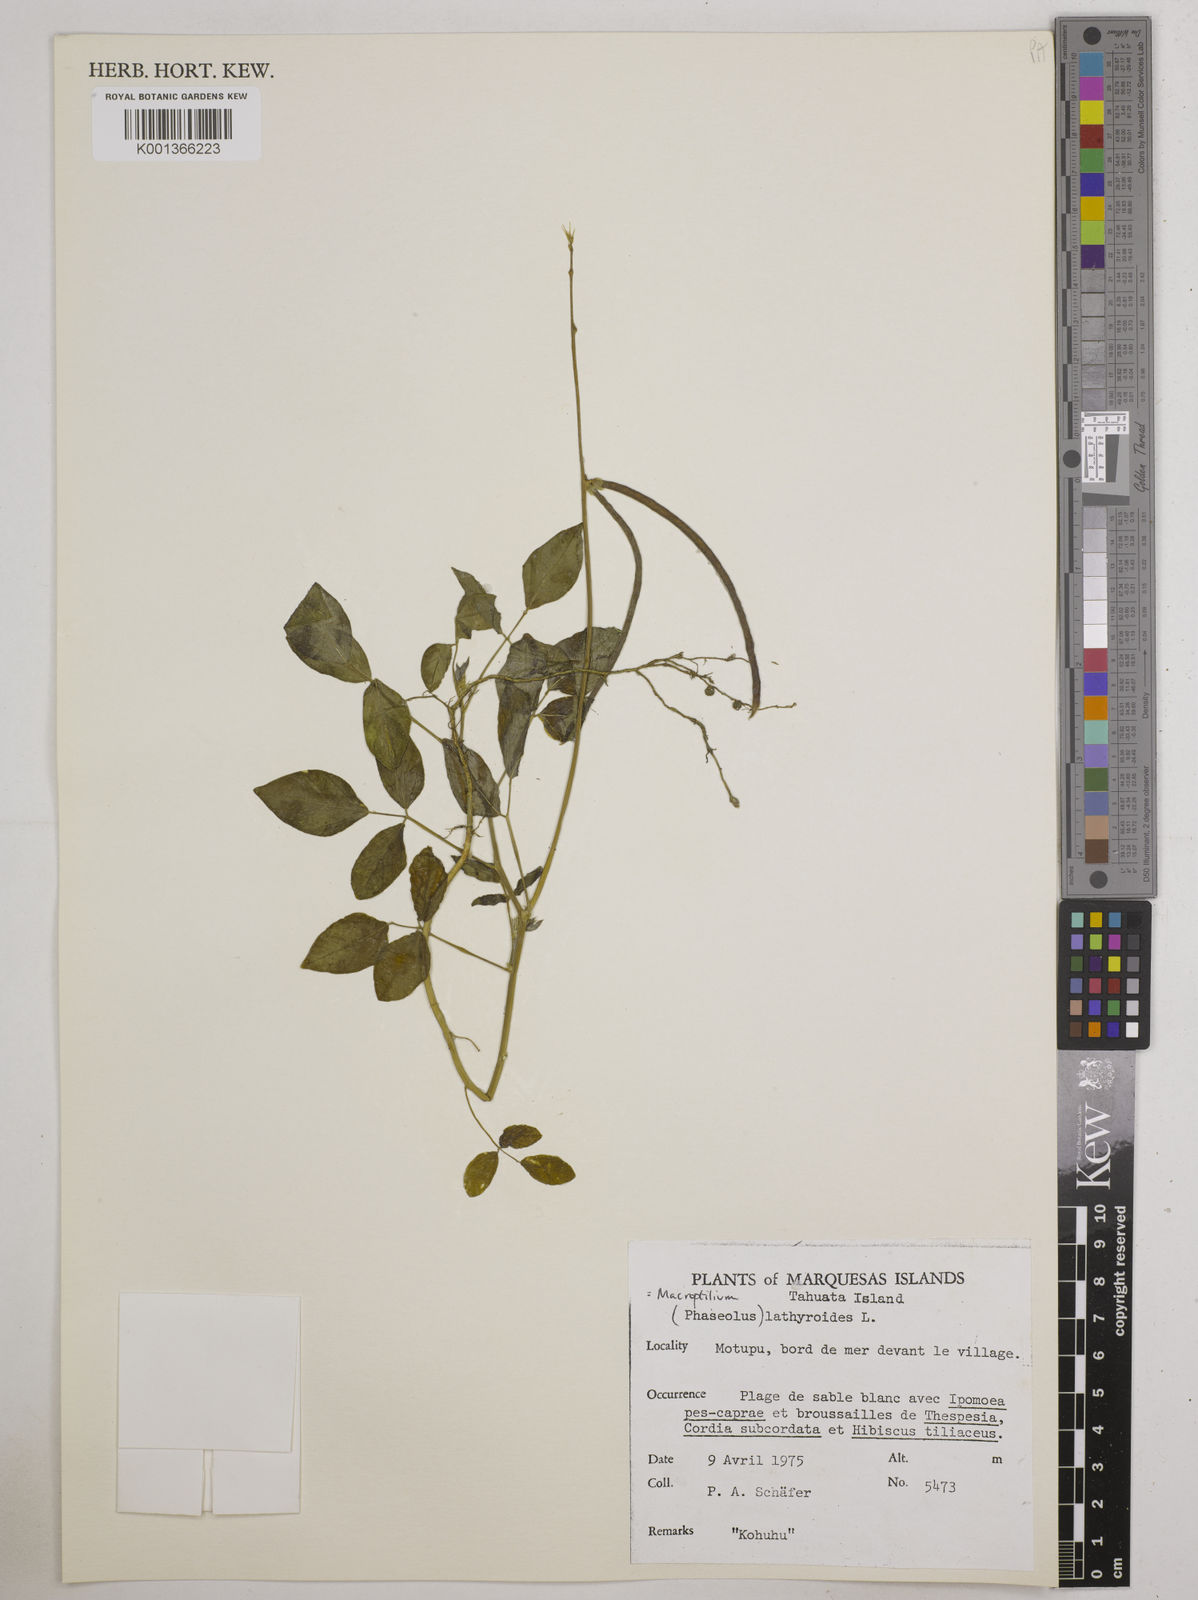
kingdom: Plantae
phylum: Tracheophyta
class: Magnoliopsida
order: Fabales
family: Fabaceae
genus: Macroptilium
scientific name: Macroptilium lathyroides
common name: Wild bushbean
